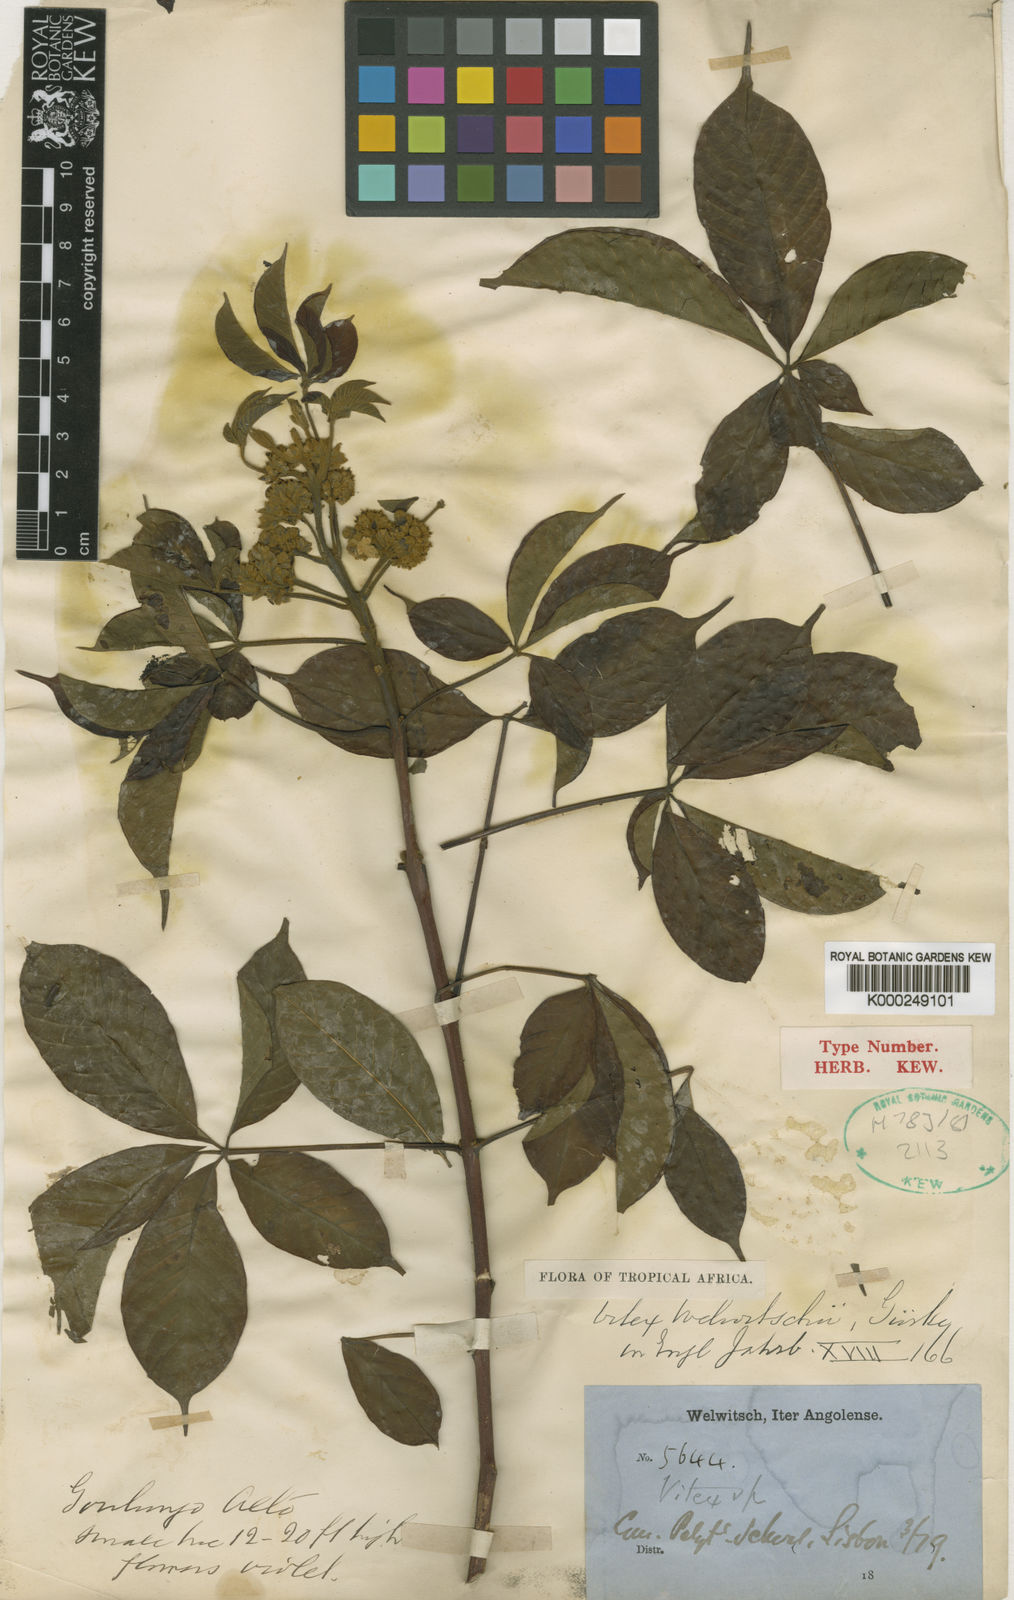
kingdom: Plantae
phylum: Tracheophyta
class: Magnoliopsida
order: Lamiales
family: Lamiaceae
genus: Vitex
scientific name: Vitex
